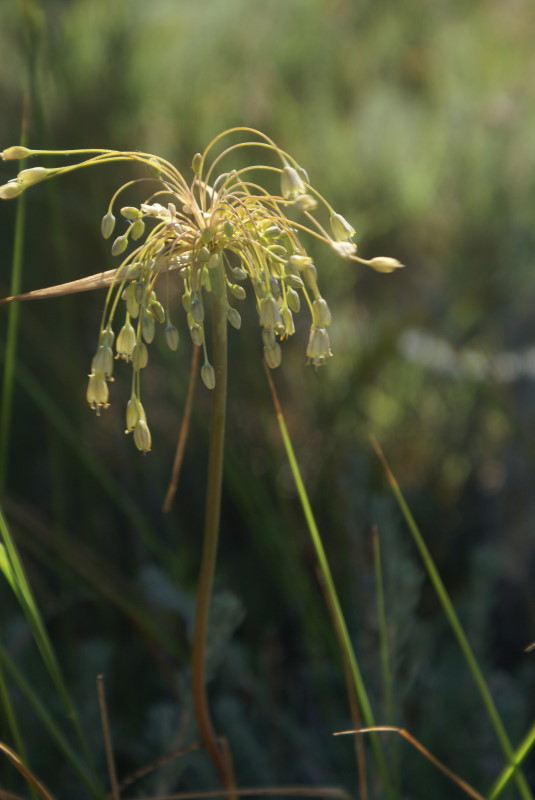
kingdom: Plantae
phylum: Tracheophyta
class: Liliopsida
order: Asparagales
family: Amaryllidaceae
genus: Allium
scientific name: Allium praescissum
